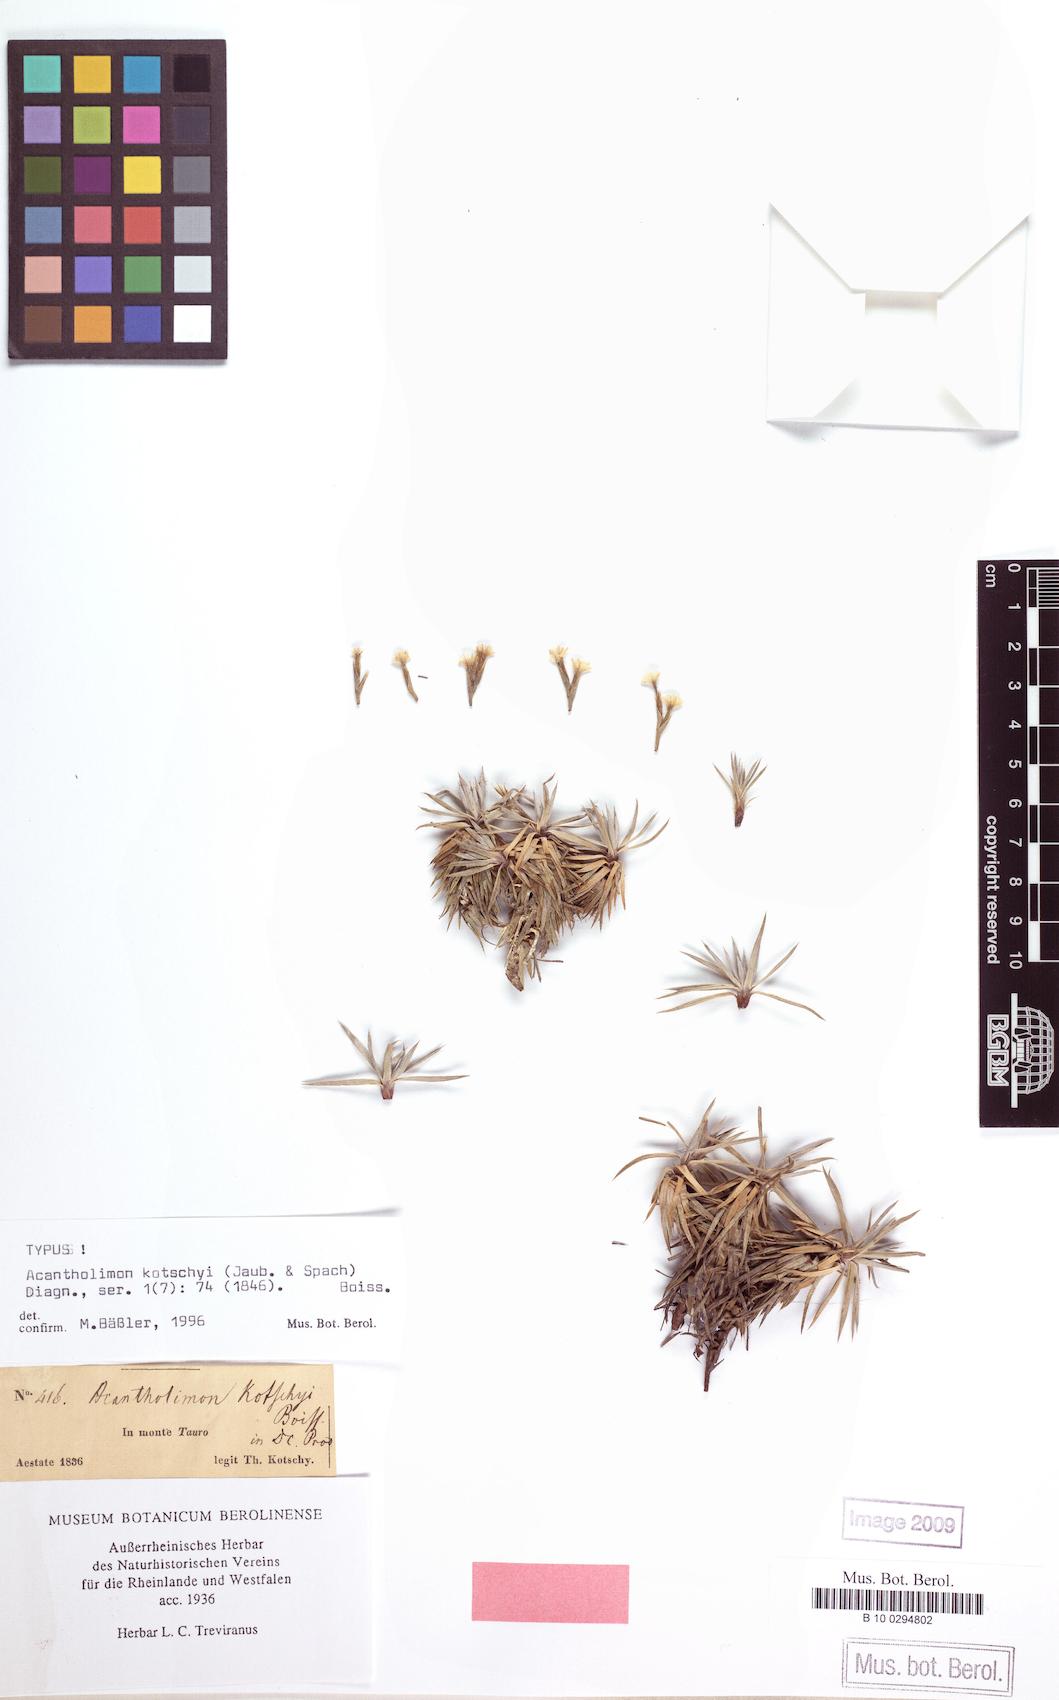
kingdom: Plantae
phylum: Tracheophyta
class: Magnoliopsida
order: Caryophyllales
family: Plumbaginaceae
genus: Acantholimon
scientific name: Acantholimon kotschyi
